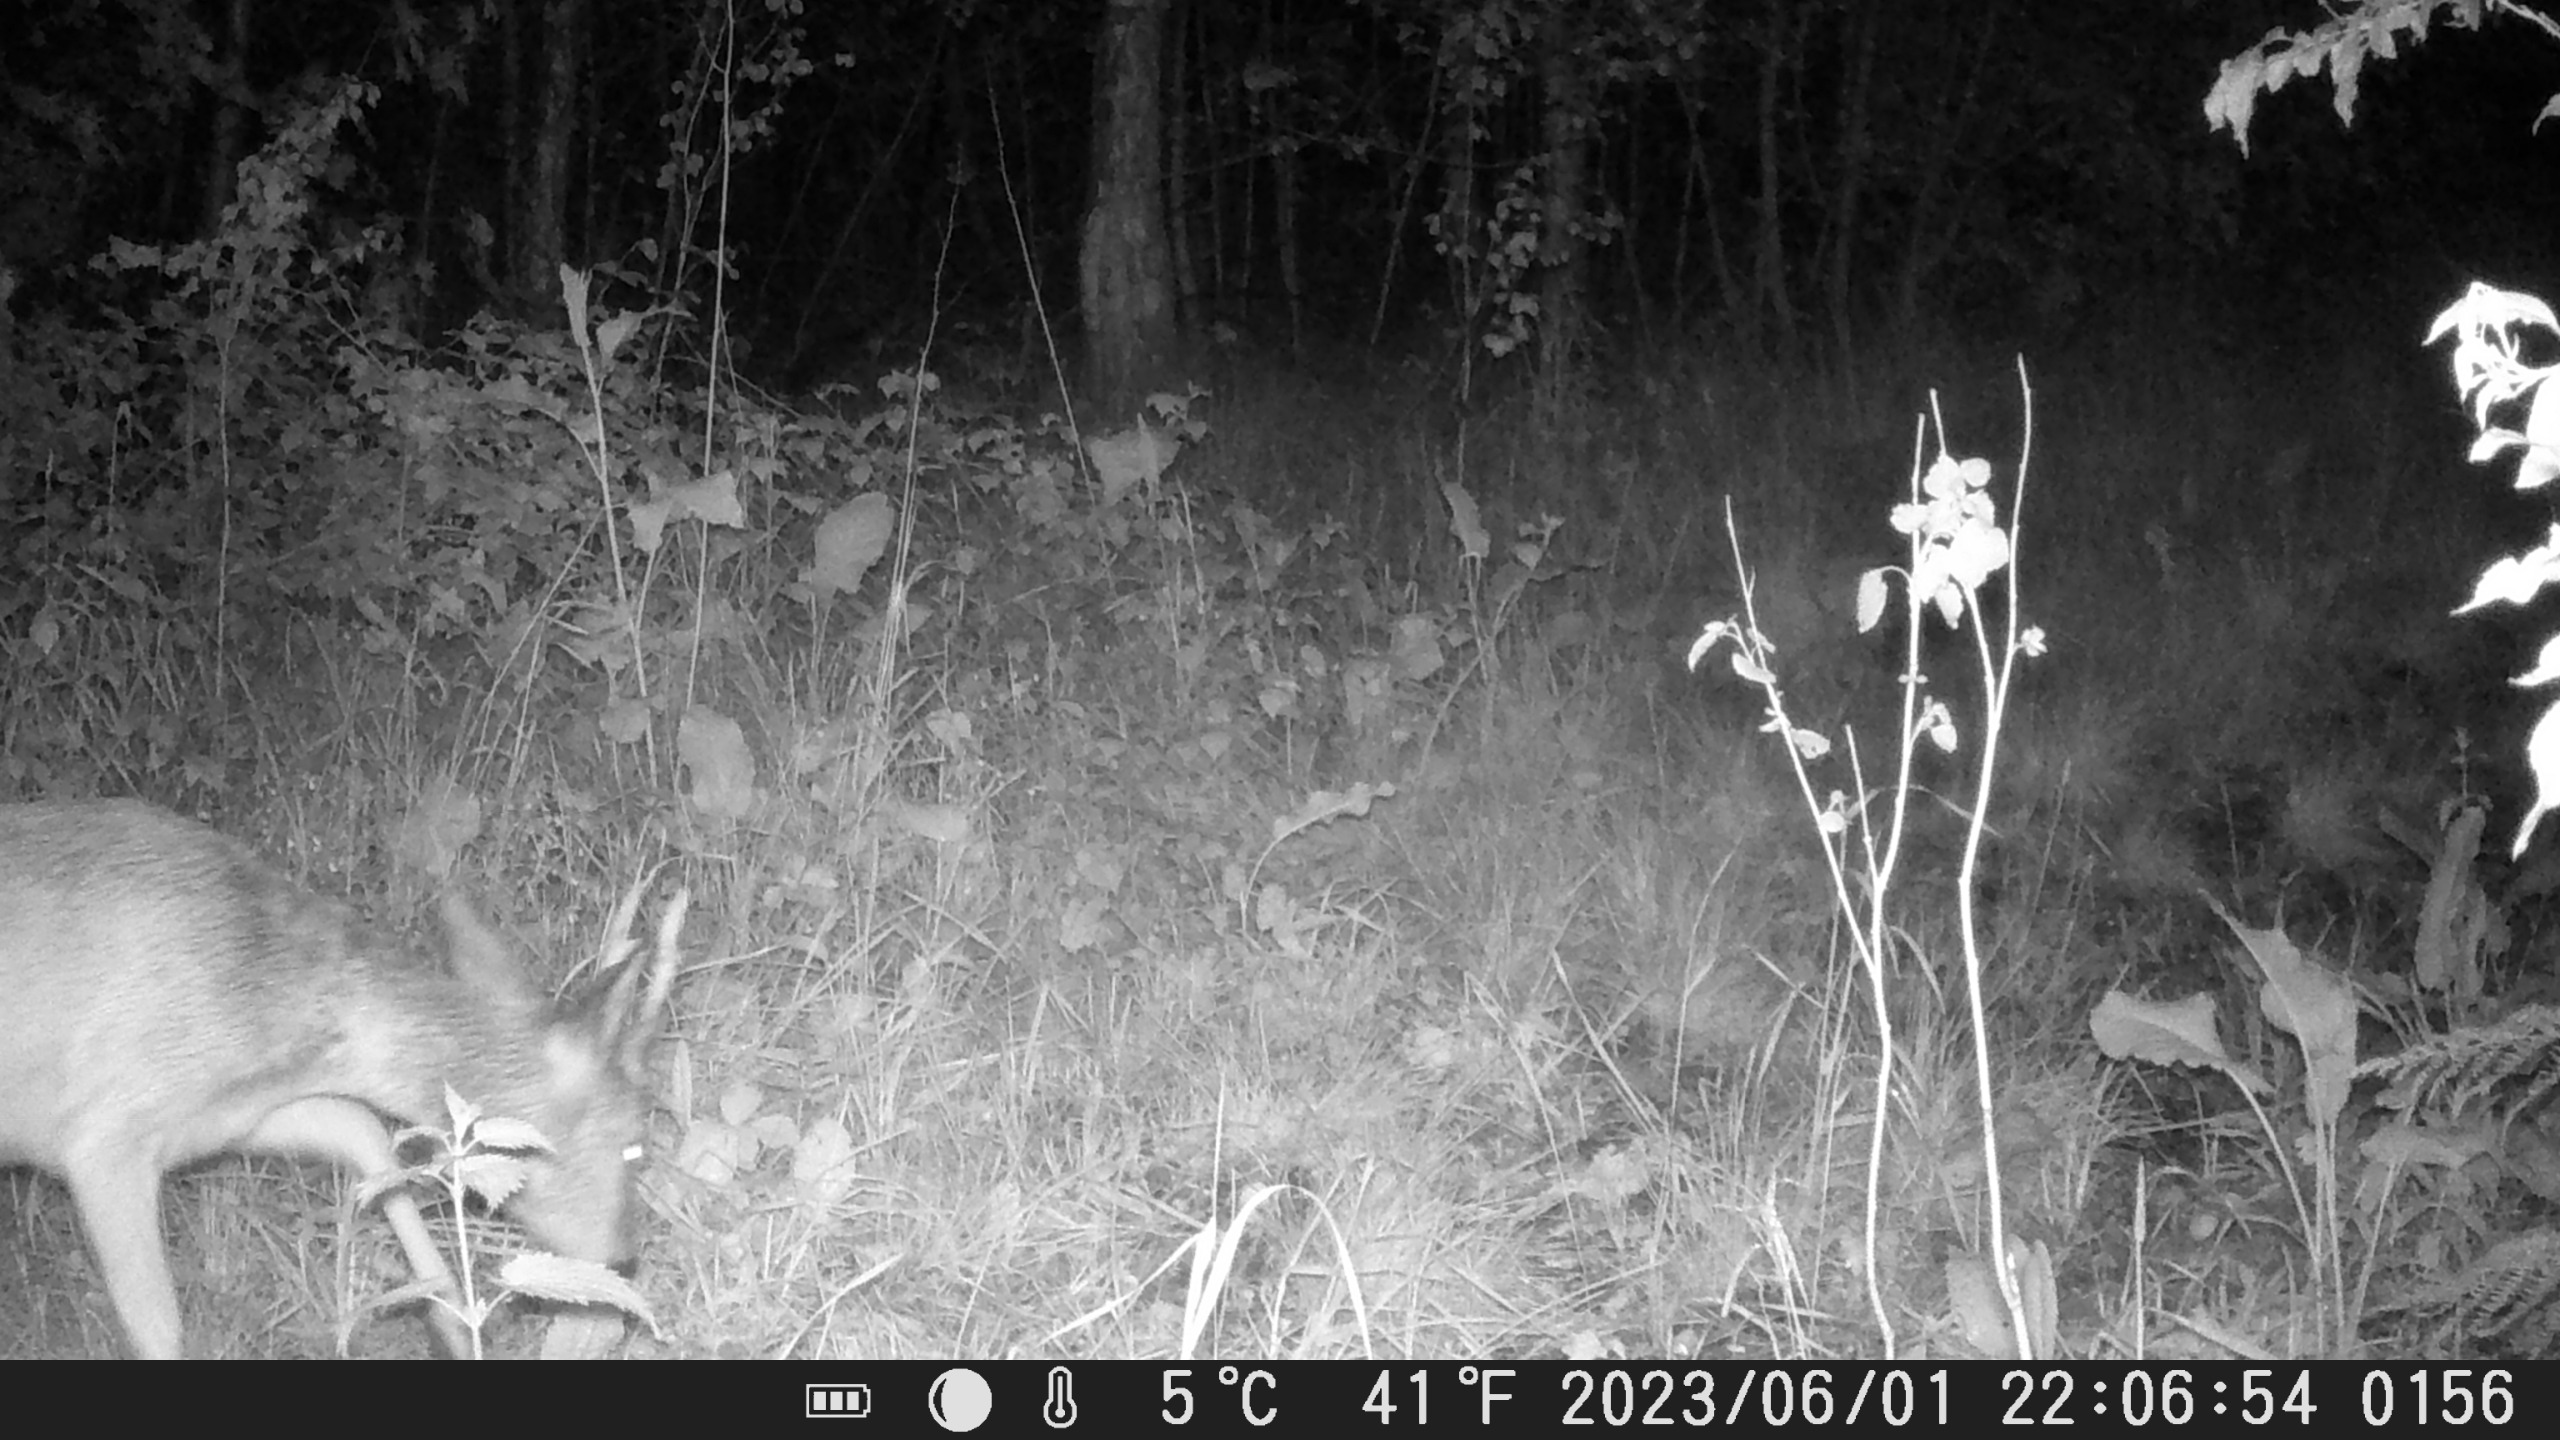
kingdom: Animalia
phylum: Chordata
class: Mammalia
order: Artiodactyla
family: Cervidae
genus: Capreolus
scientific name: Capreolus capreolus
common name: Rådyr
